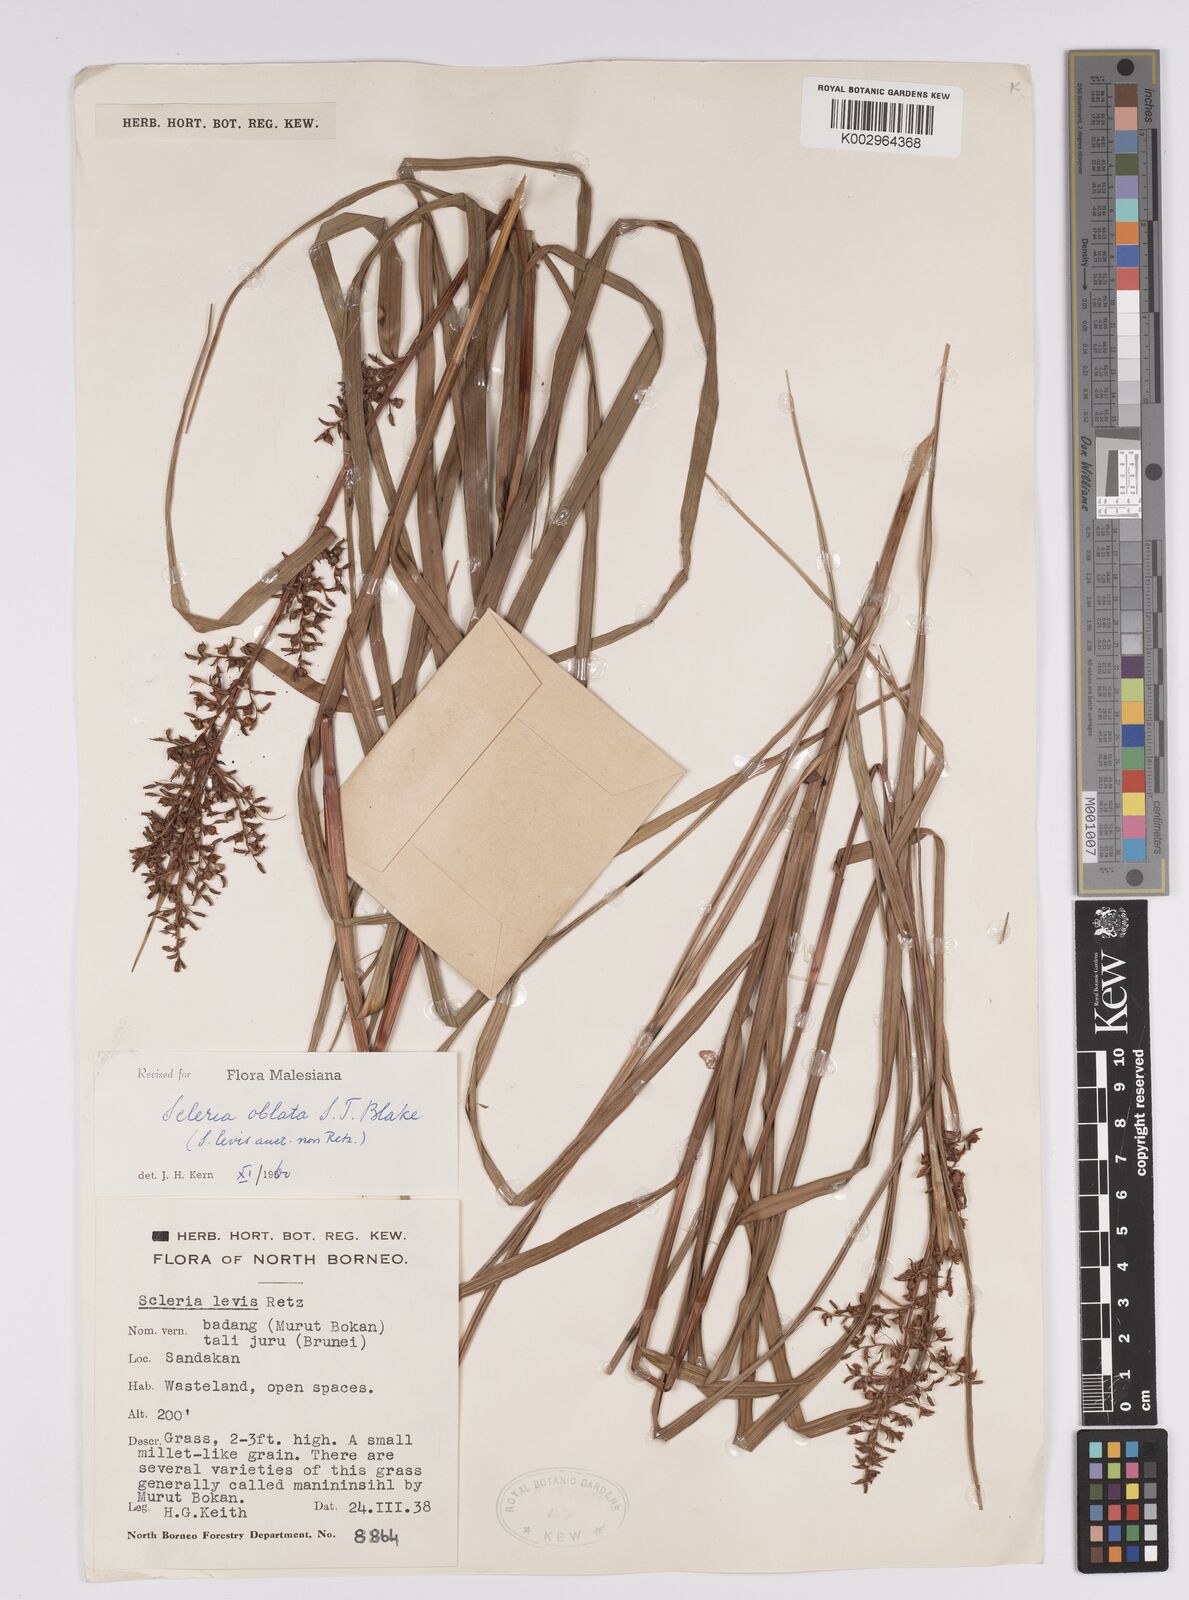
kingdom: Plantae
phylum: Tracheophyta
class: Liliopsida
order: Poales
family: Cyperaceae
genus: Scleria
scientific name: Scleria oblata
